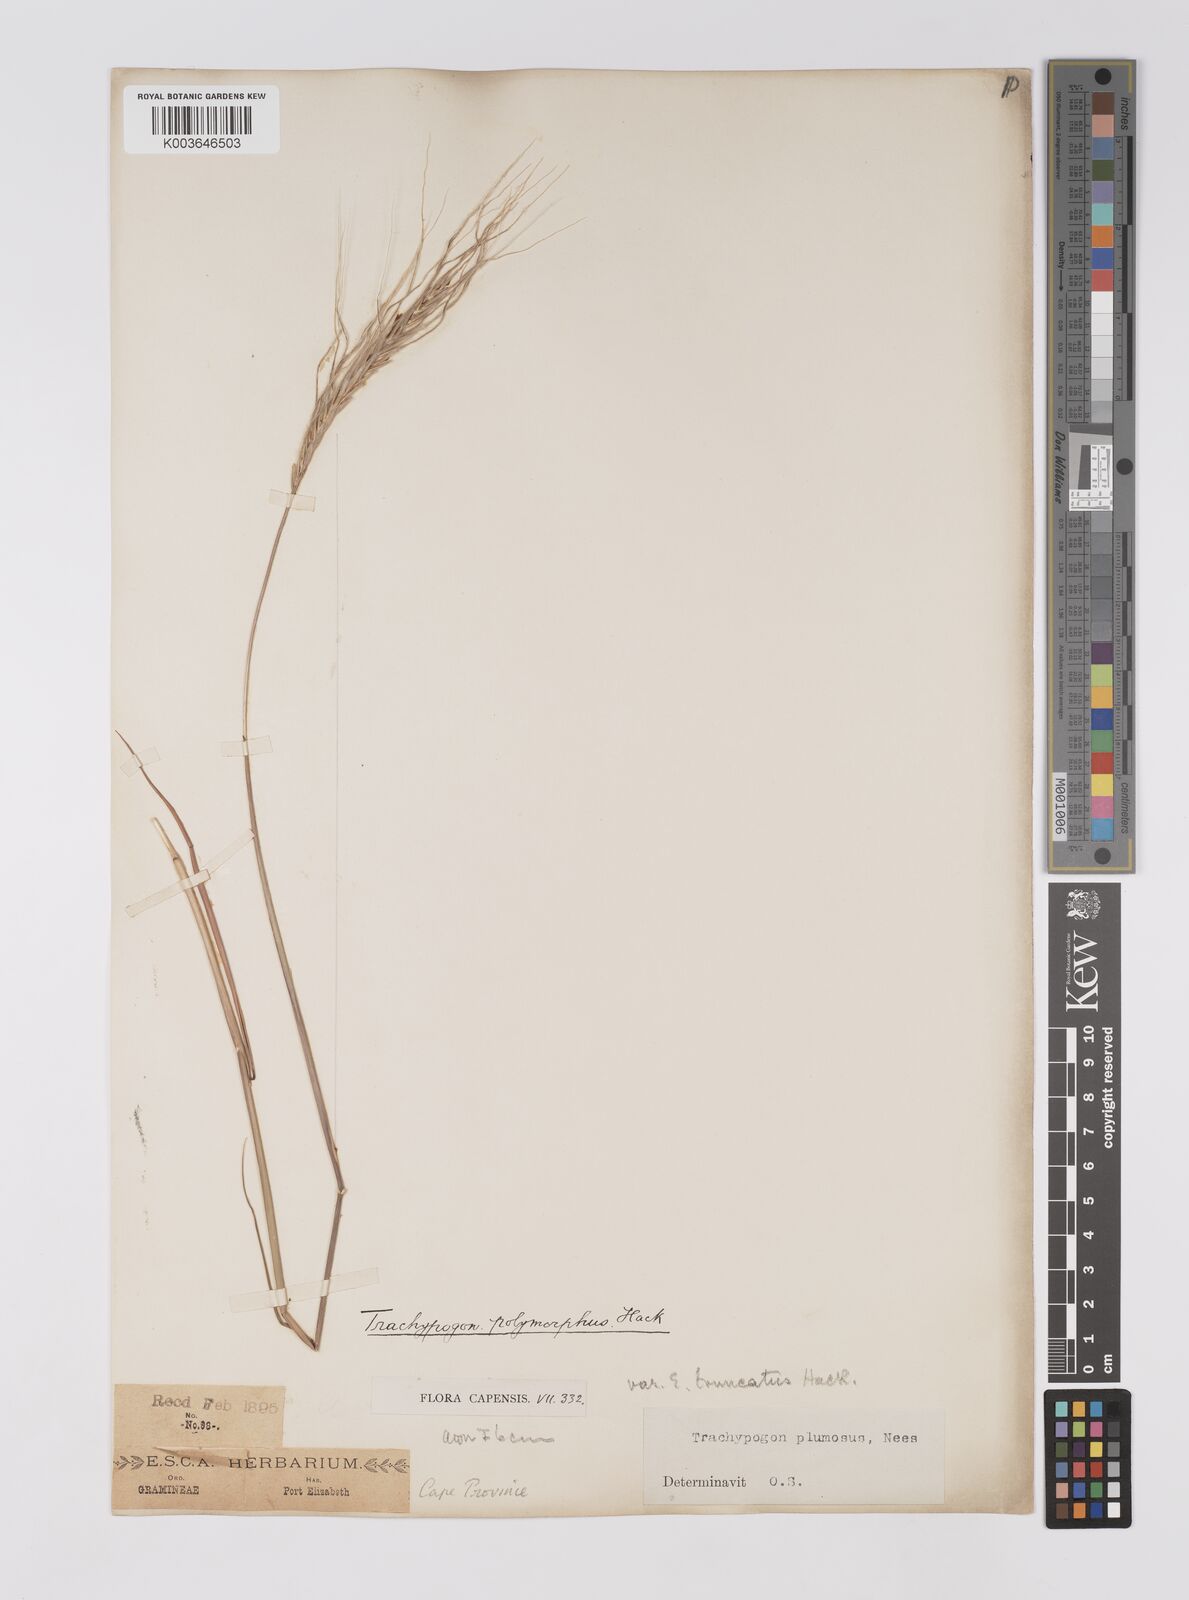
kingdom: Plantae
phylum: Tracheophyta
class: Liliopsida
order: Poales
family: Poaceae
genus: Trachypogon
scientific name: Trachypogon spicatus
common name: Crinkle-awn
